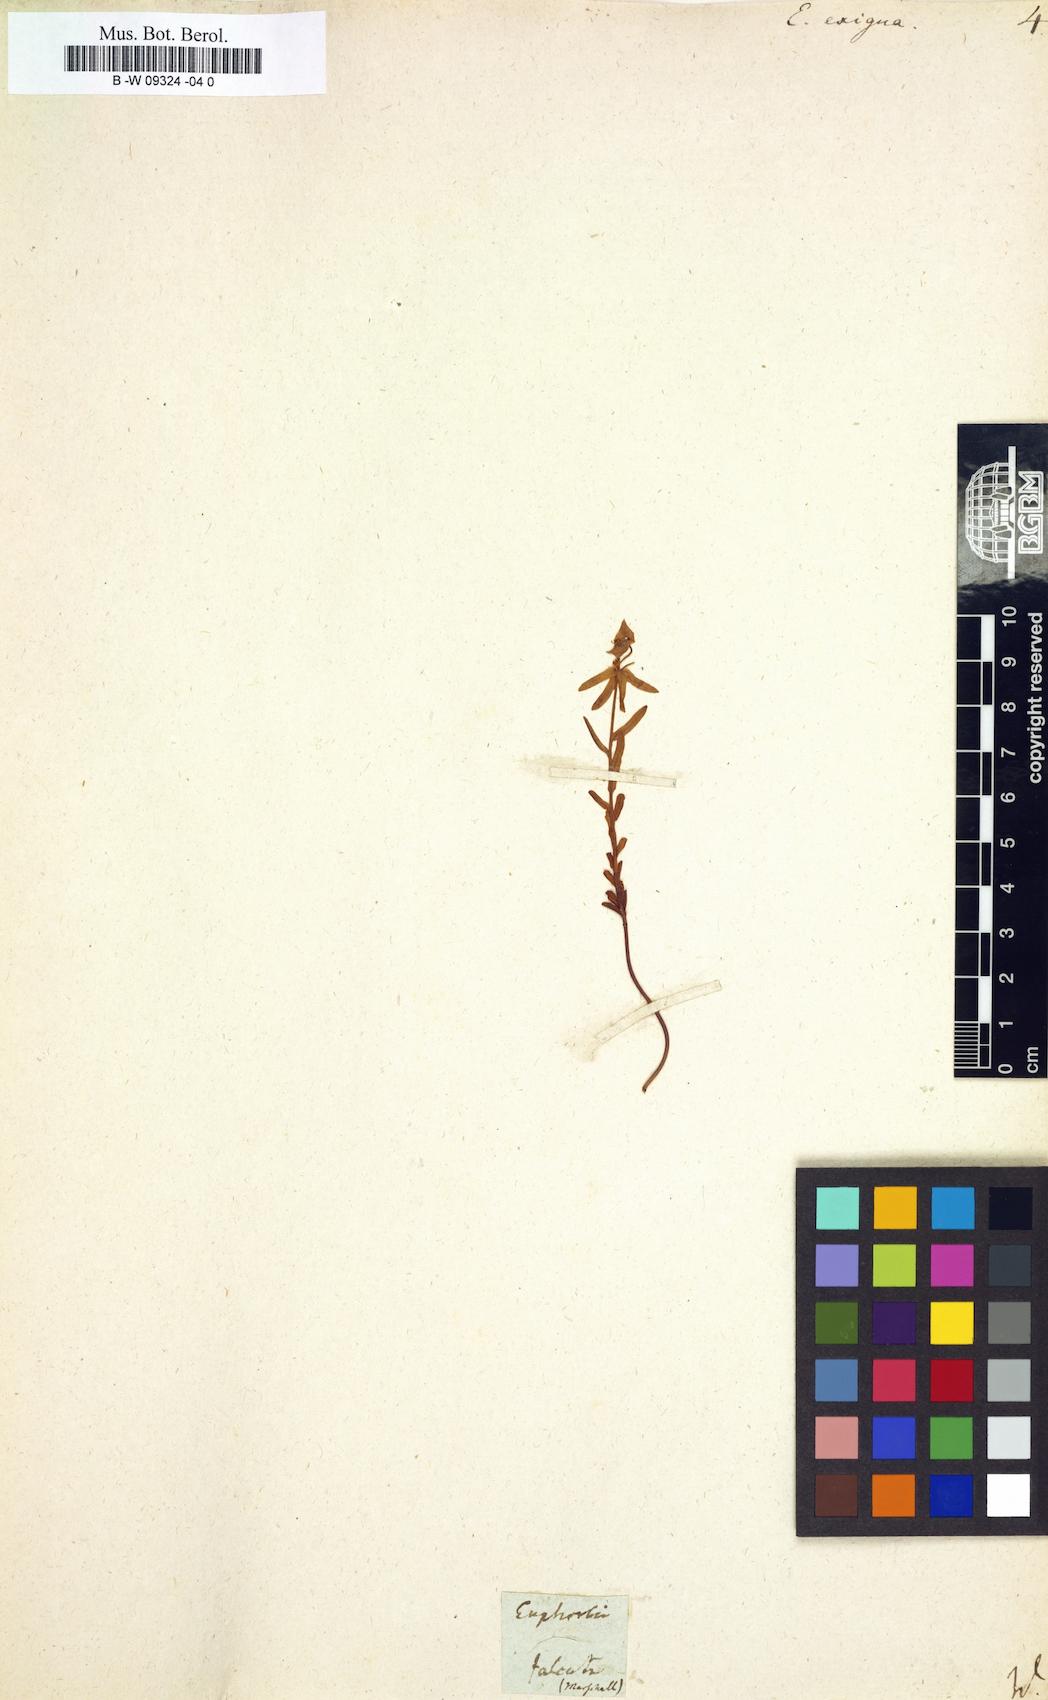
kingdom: Plantae
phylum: Tracheophyta
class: Magnoliopsida
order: Malpighiales
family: Euphorbiaceae
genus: Euphorbia
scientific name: Euphorbia exigua
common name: Dwarf spurge
